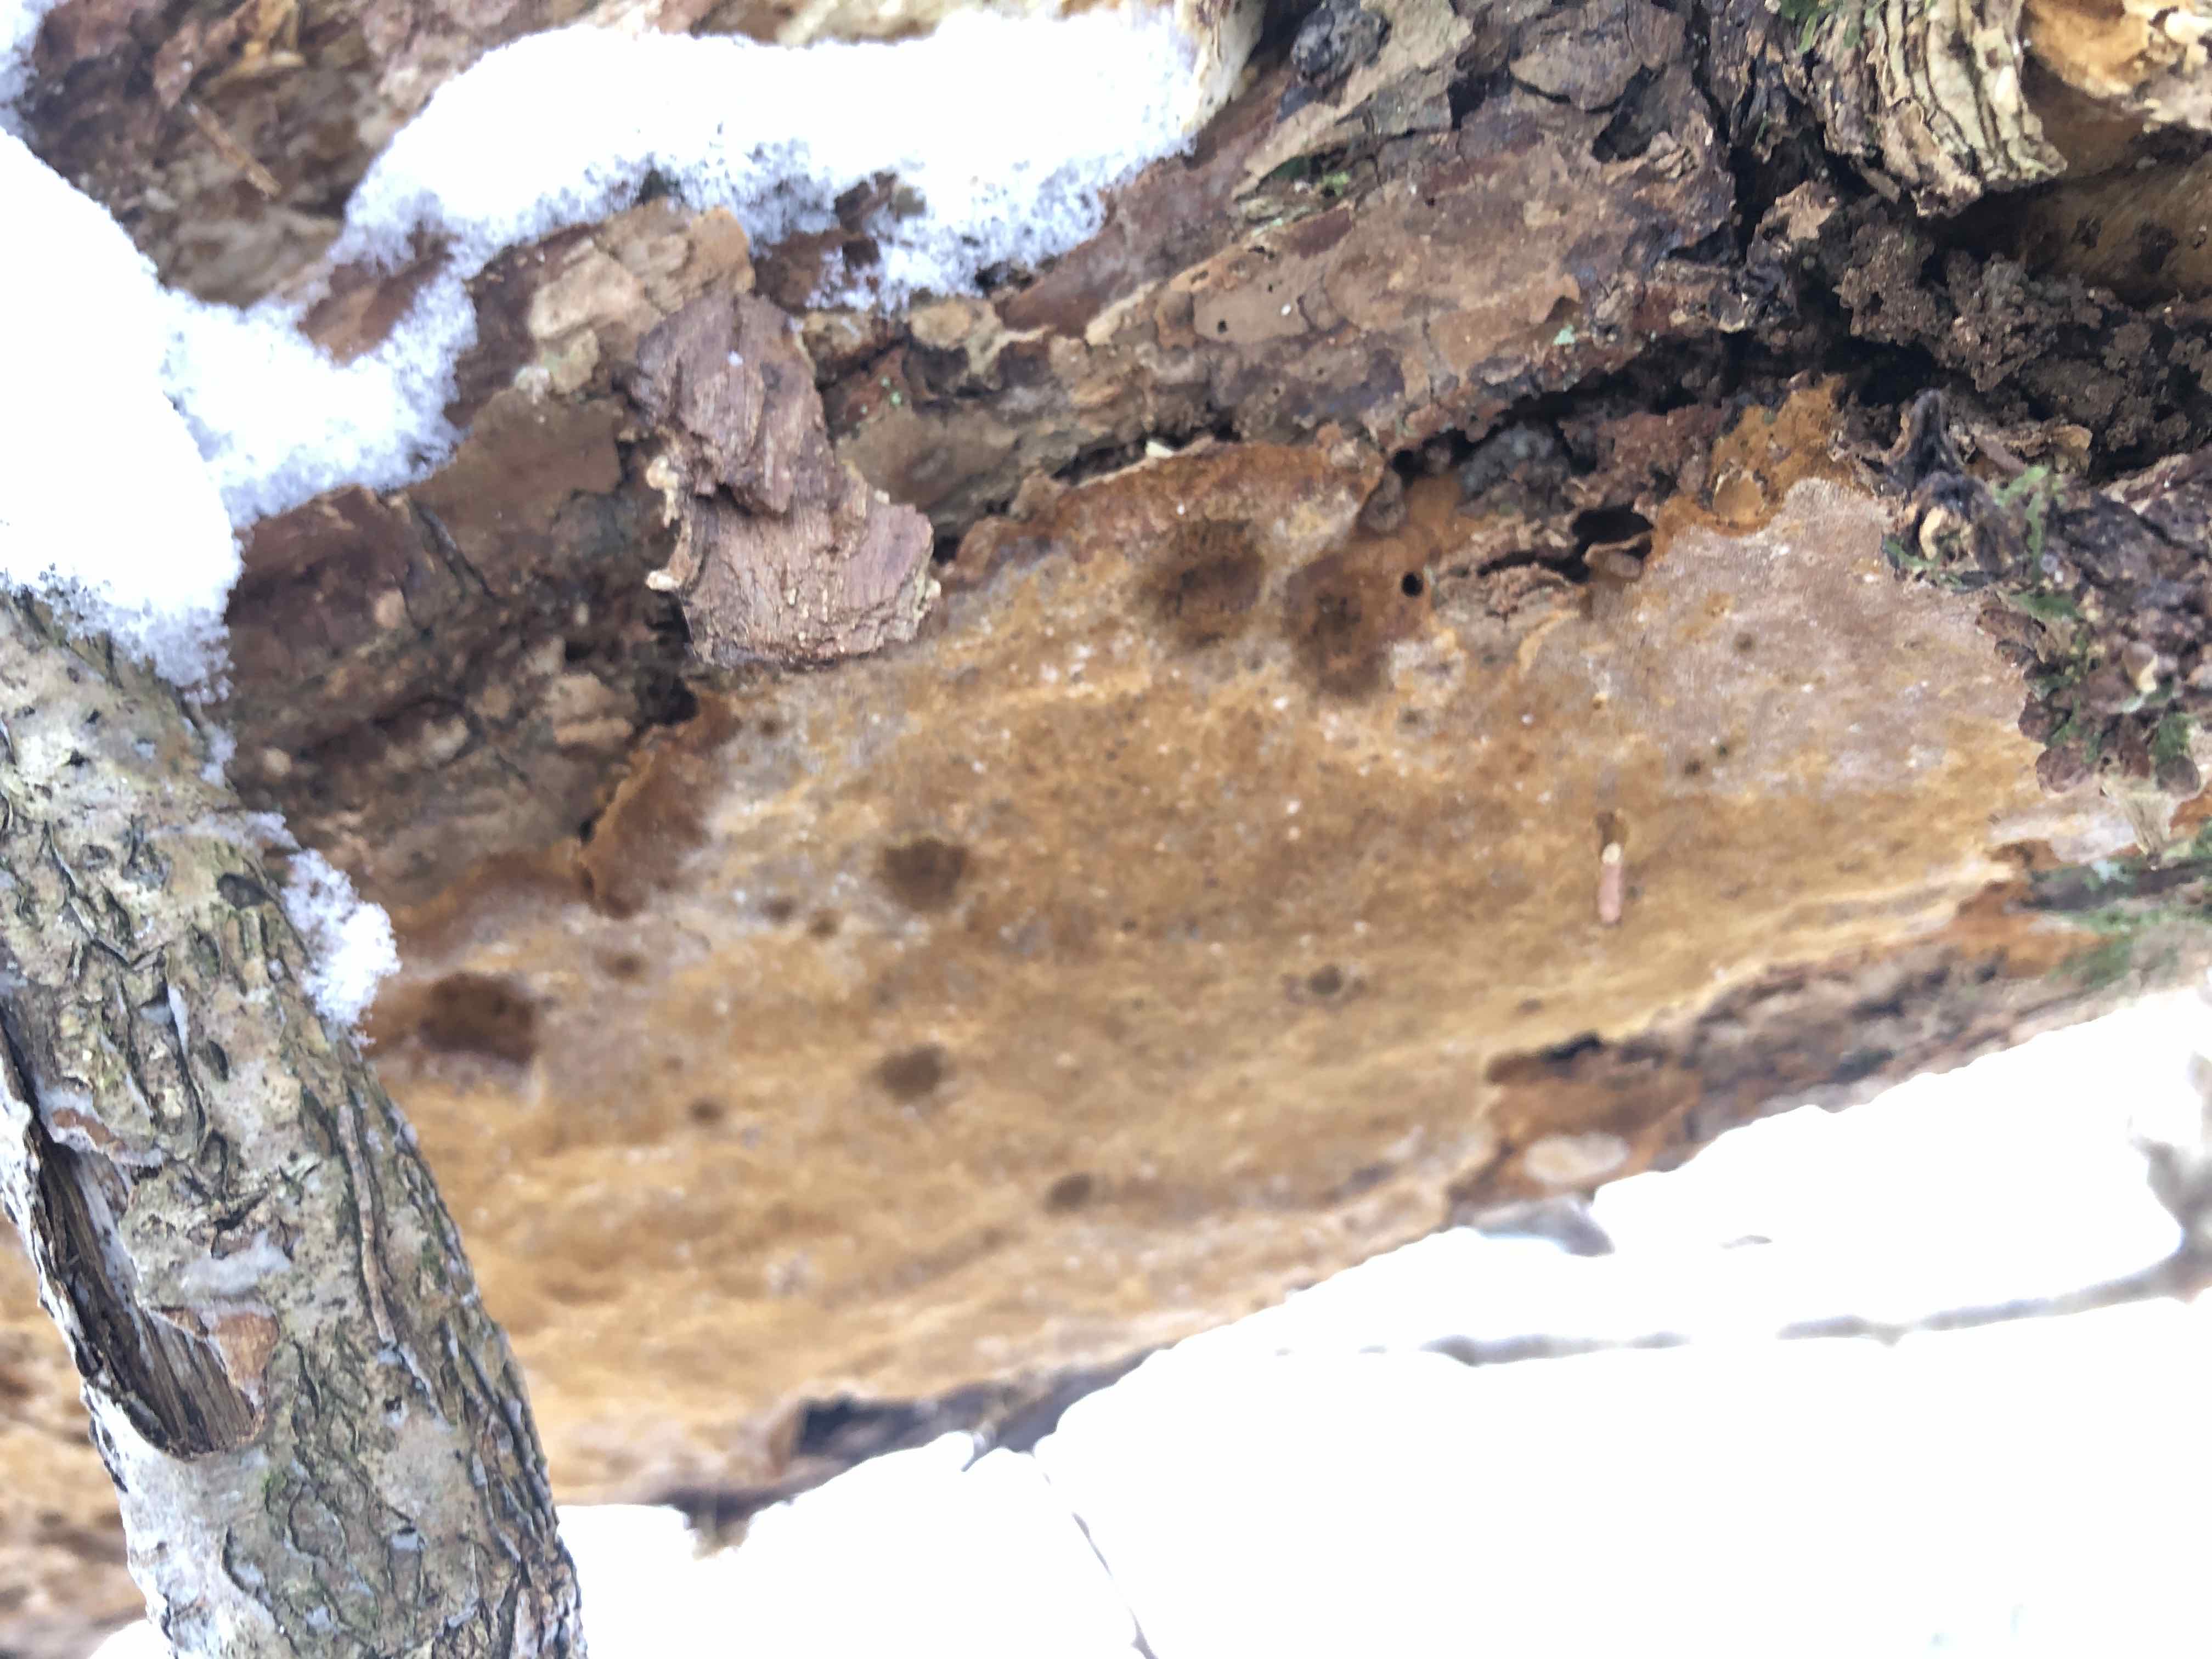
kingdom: Fungi
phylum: Basidiomycota
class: Agaricomycetes
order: Hymenochaetales
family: Hymenochaetaceae
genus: Fuscoporia
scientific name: Fuscoporia ferrea
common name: skorpe-ildporesvamp
